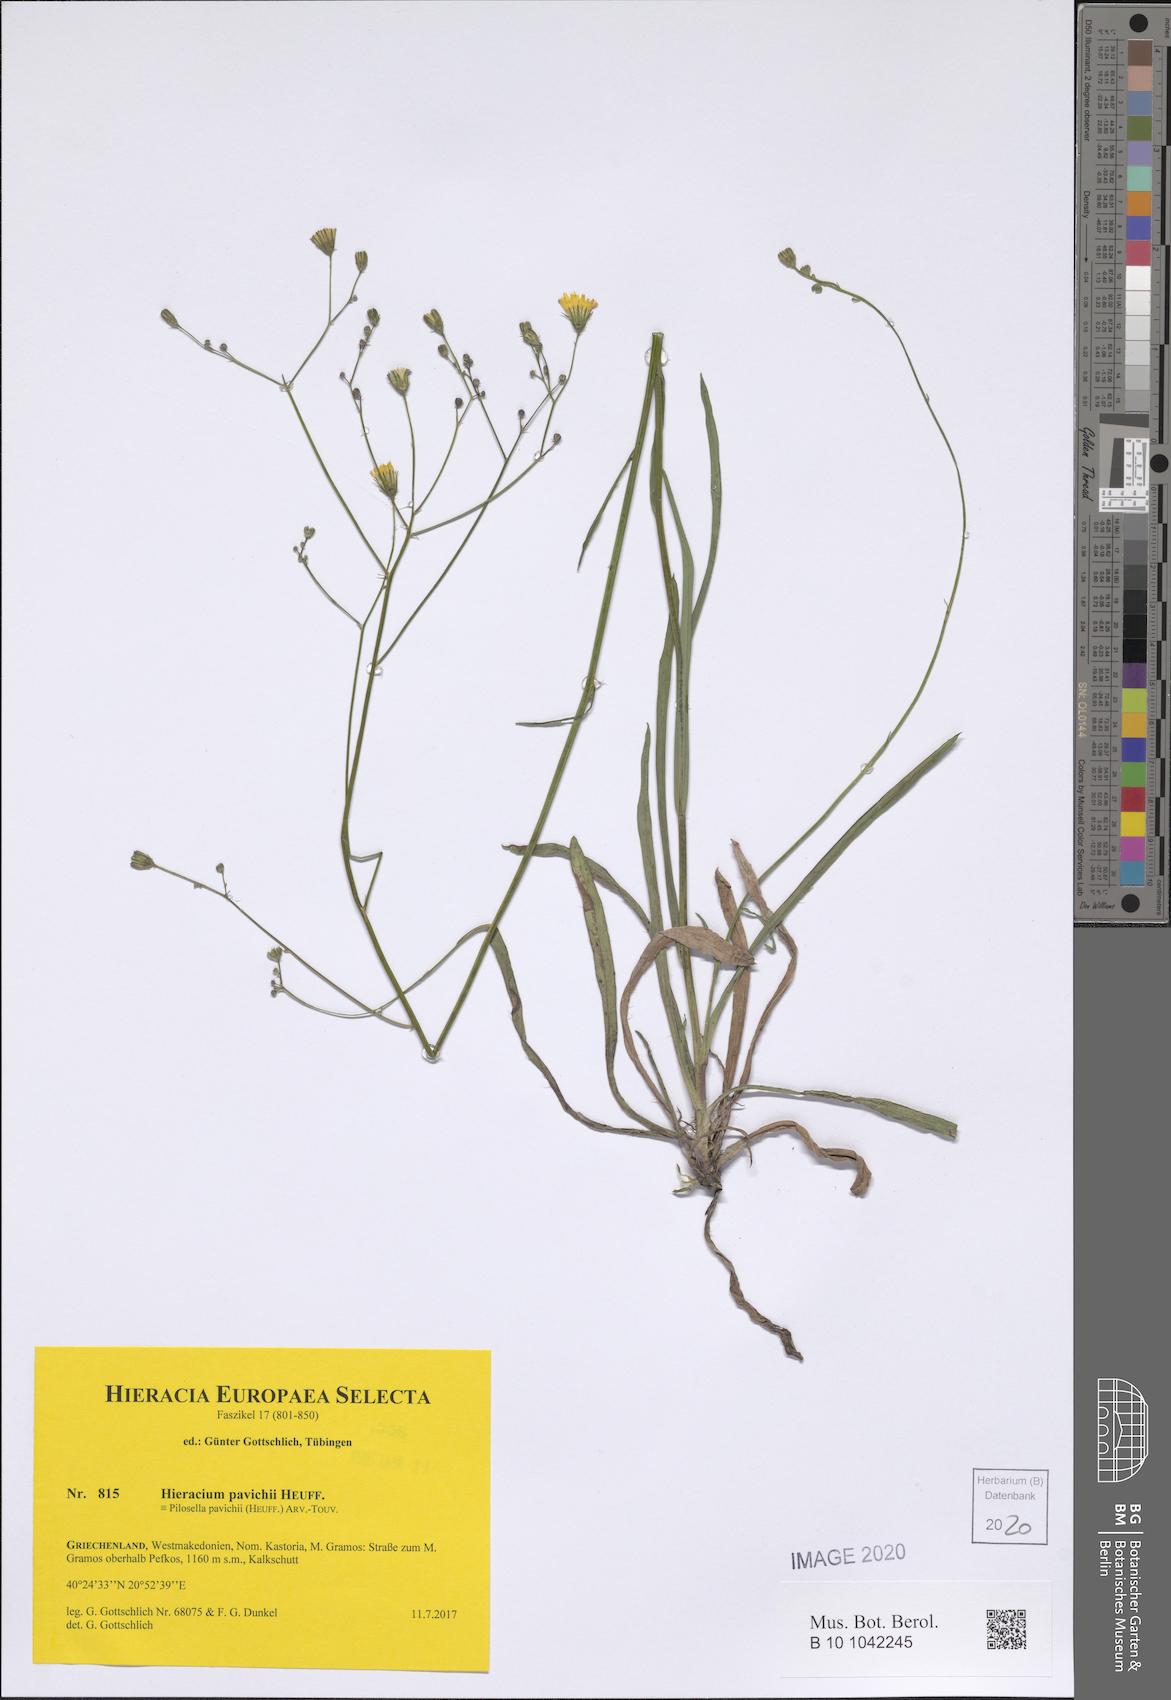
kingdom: Plantae
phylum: Tracheophyta
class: Magnoliopsida
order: Asterales
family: Asteraceae
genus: Pilosella
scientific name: Pilosella pavichii
